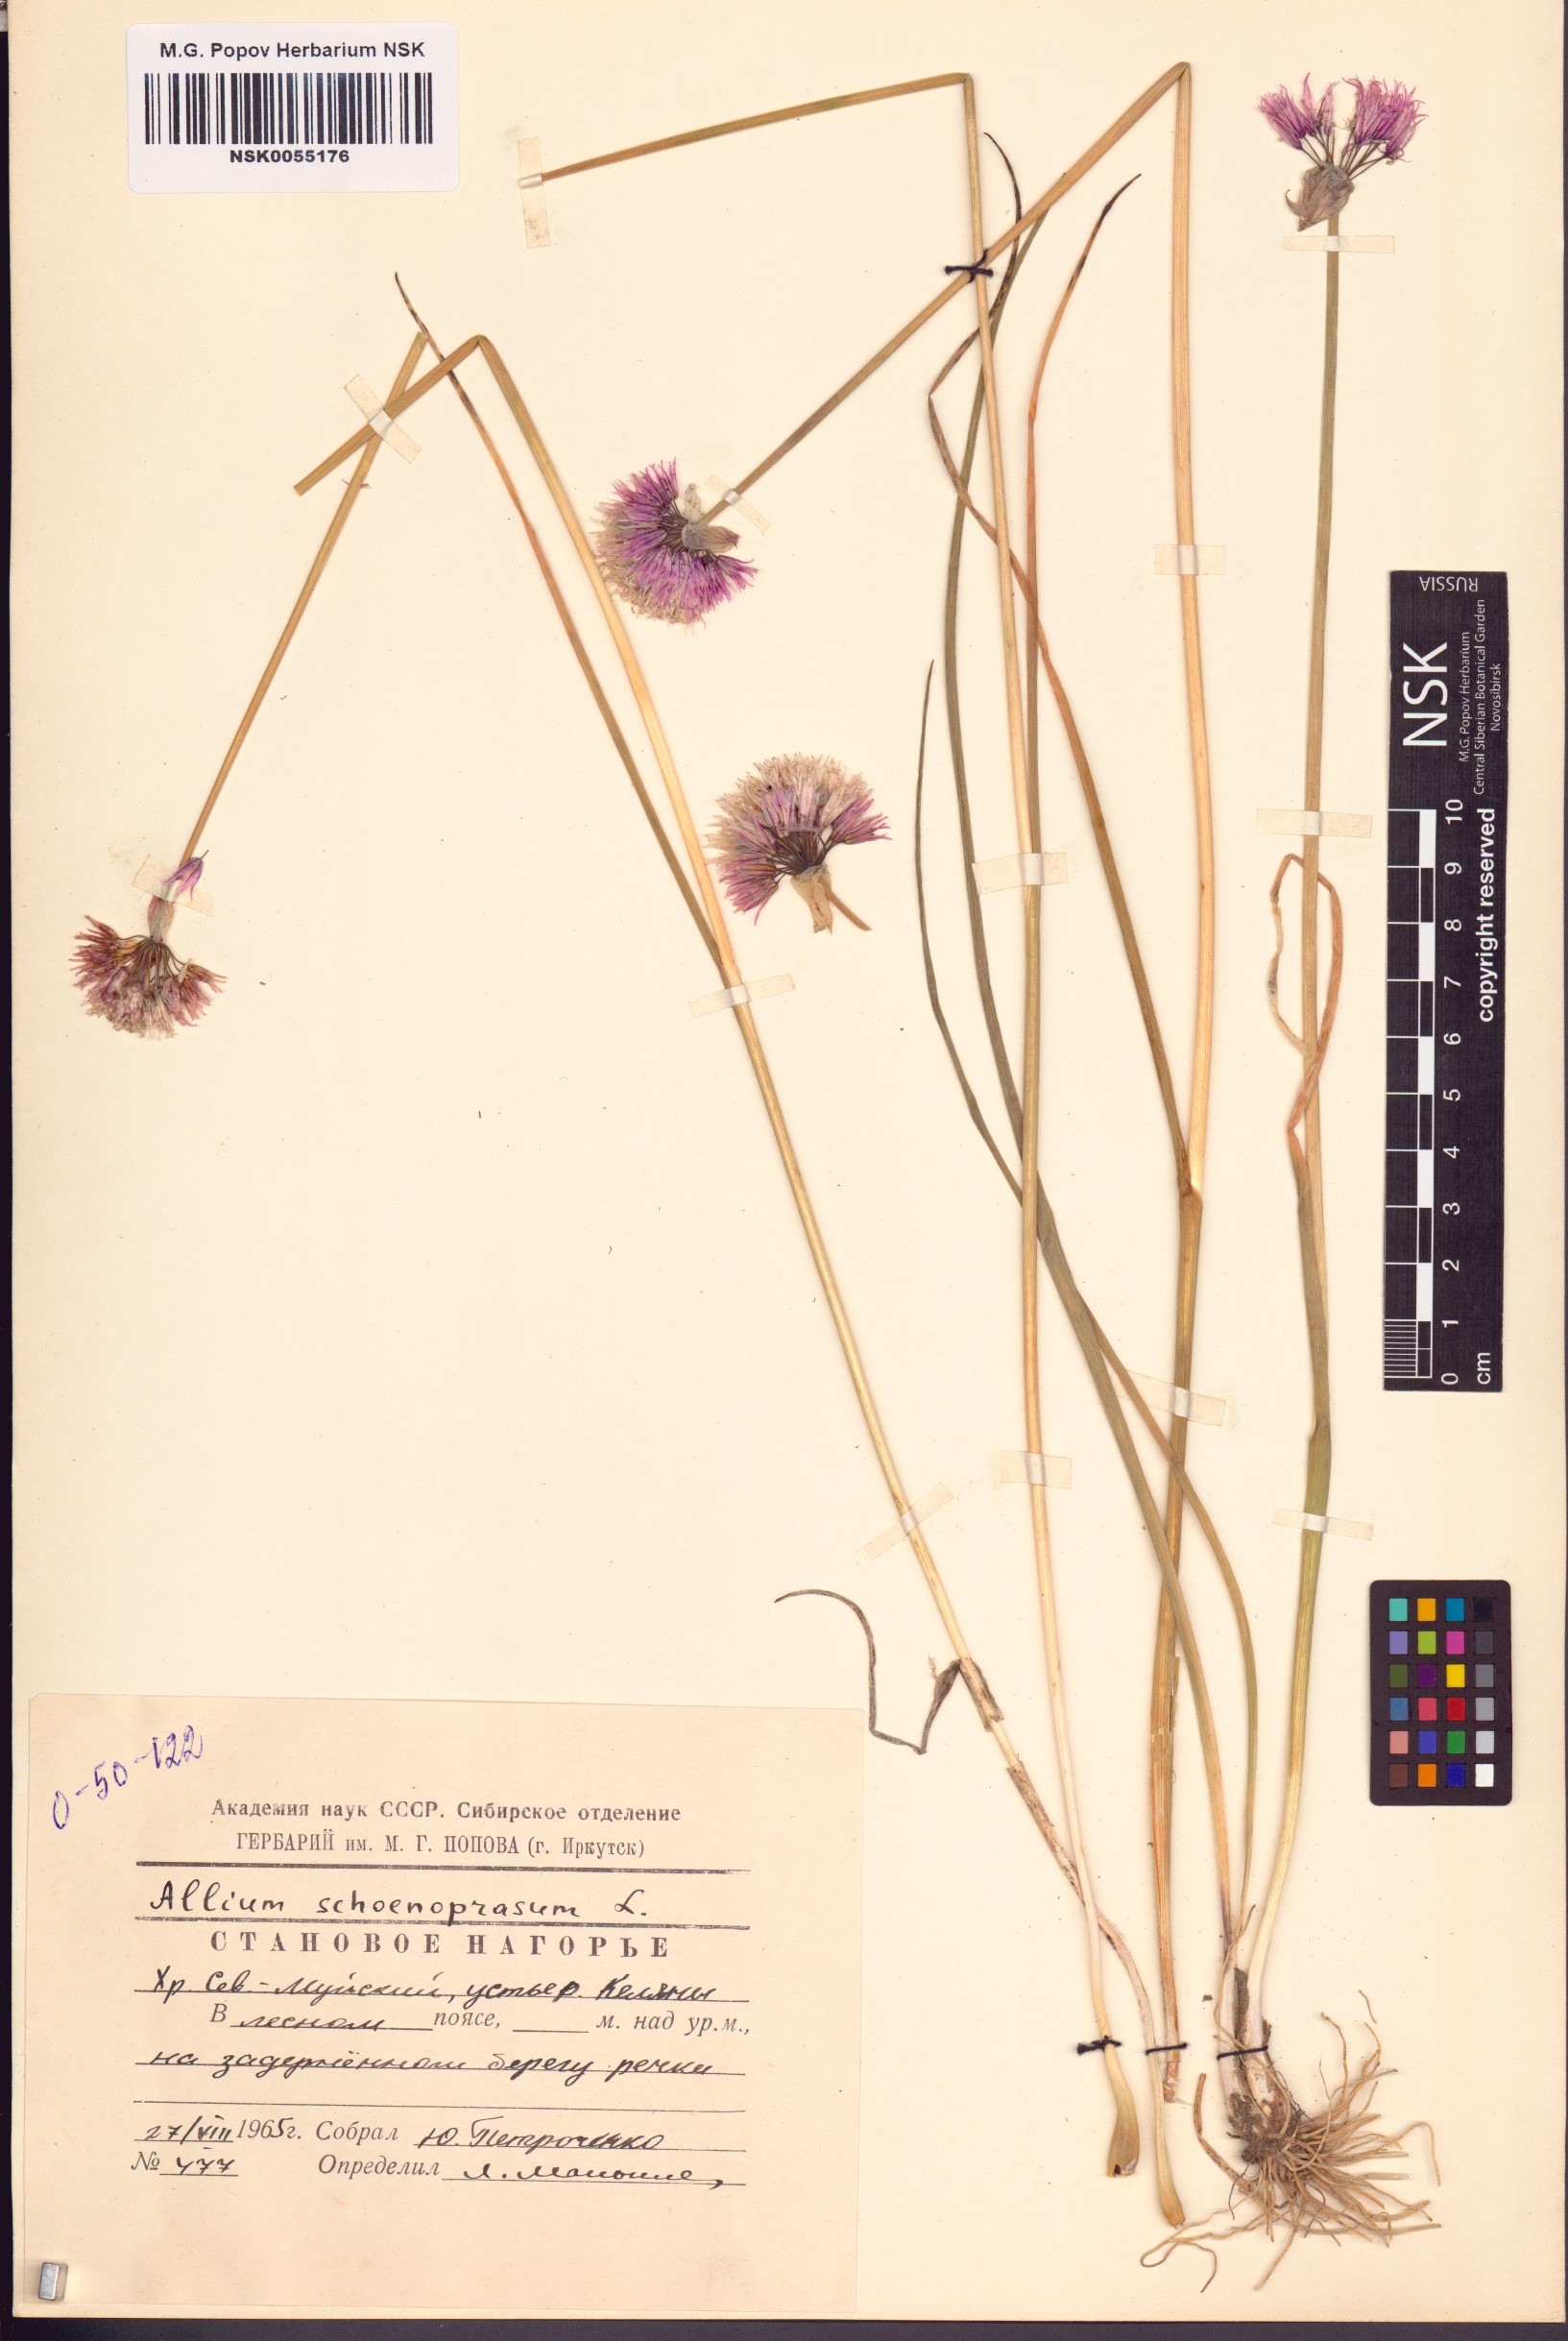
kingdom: Plantae
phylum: Tracheophyta
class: Liliopsida
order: Asparagales
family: Amaryllidaceae
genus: Allium
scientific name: Allium schoenoprasum
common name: Chives
